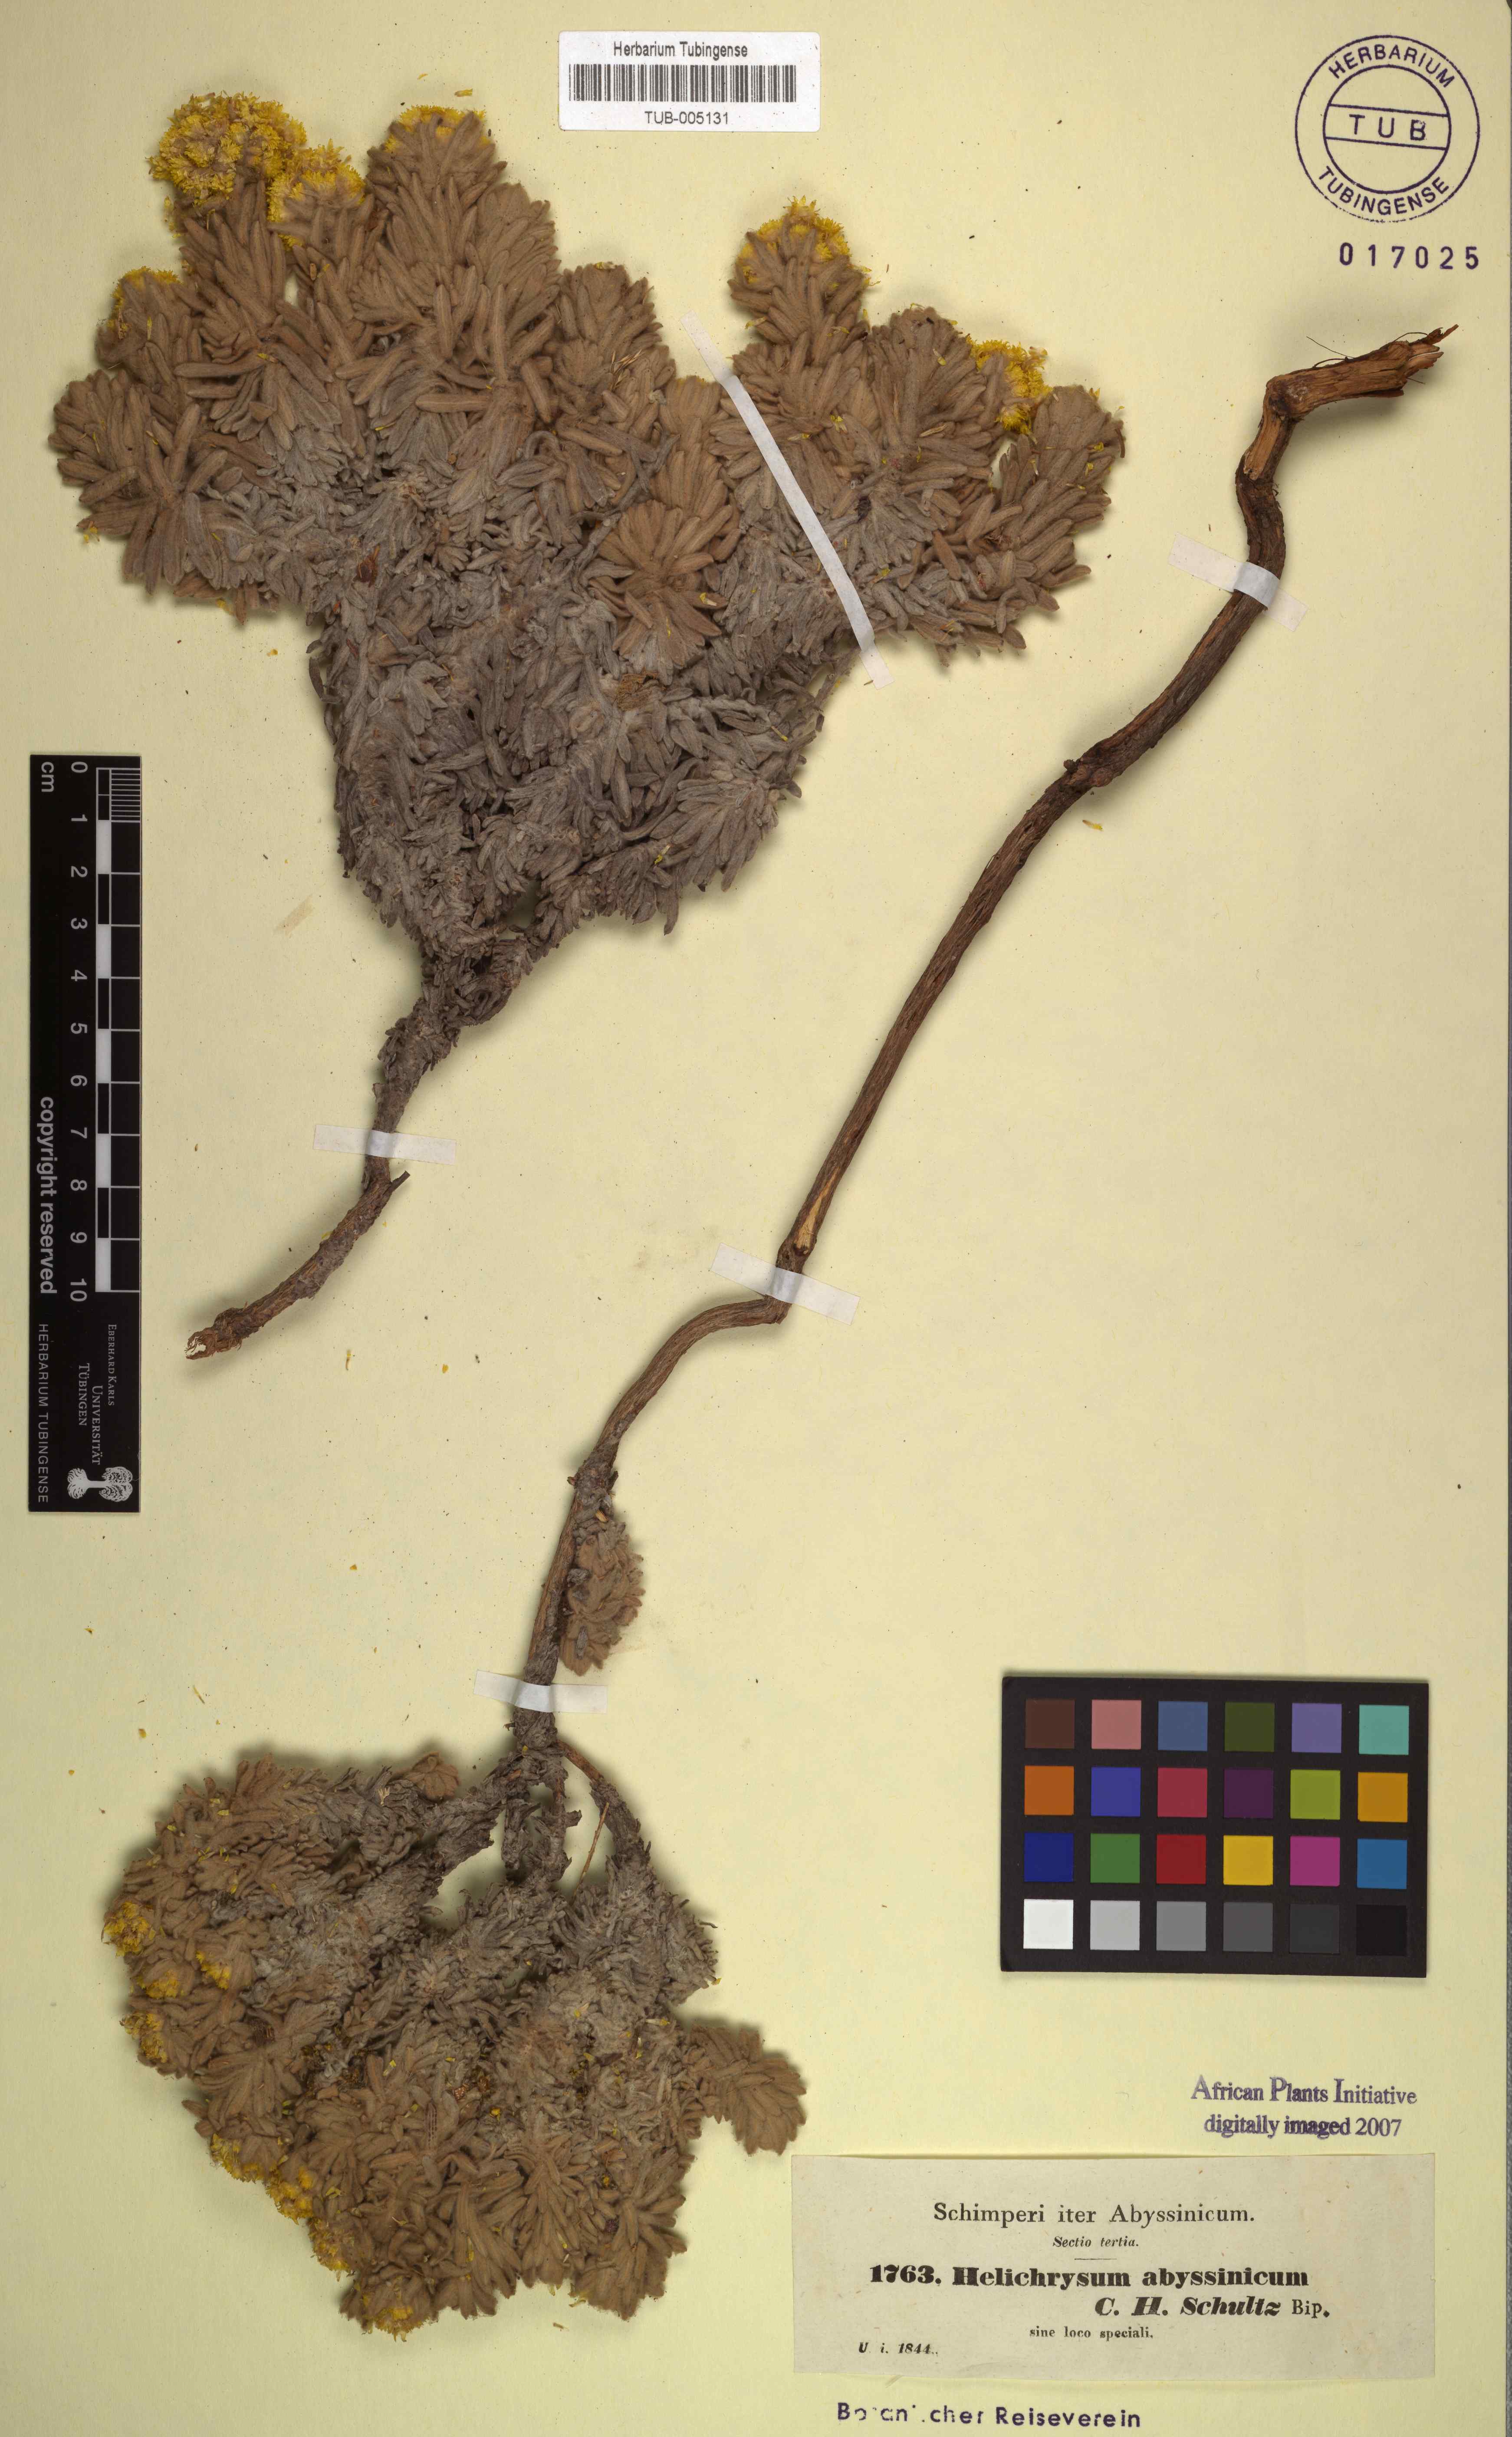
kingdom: Plantae
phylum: Tracheophyta
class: Magnoliopsida
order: Asterales
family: Asteraceae
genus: Helichrysum
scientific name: Helichrysum abyssinicum
